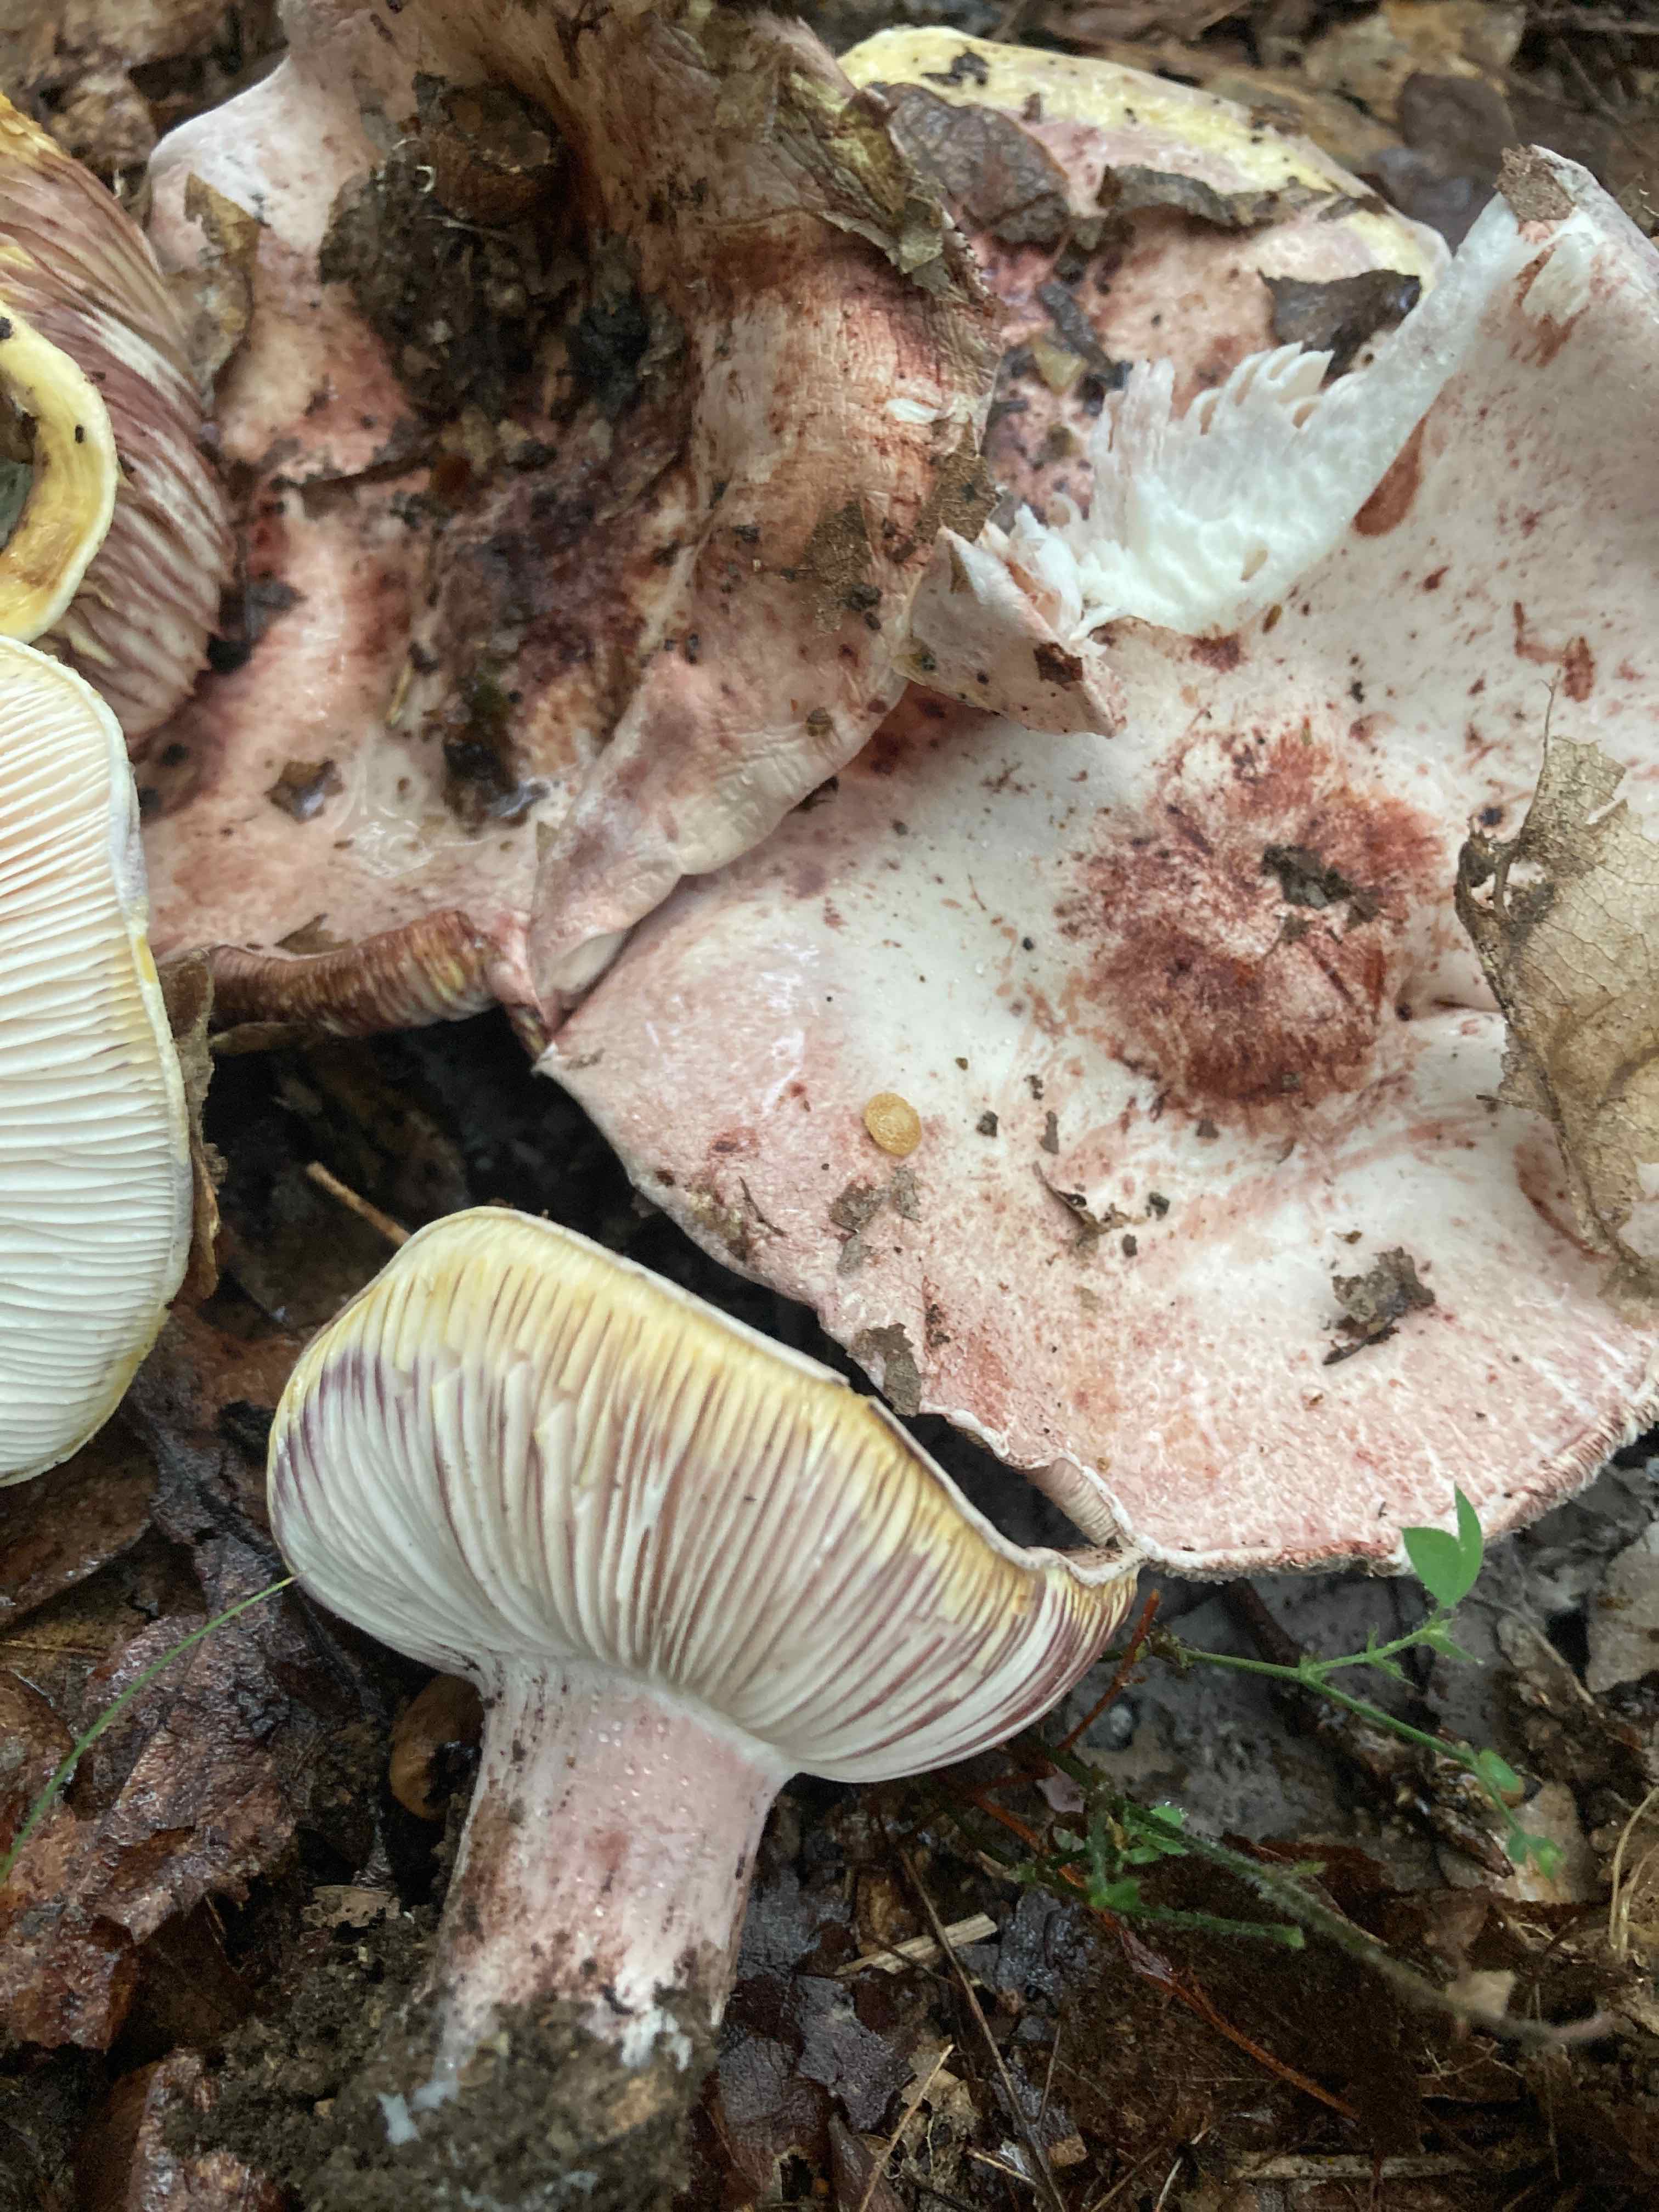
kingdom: Fungi
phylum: Basidiomycota
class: Agaricomycetes
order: Agaricales
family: Hygrophoraceae
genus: Hygrophorus
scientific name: Hygrophorus russula
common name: Pinkmottle woodwax
